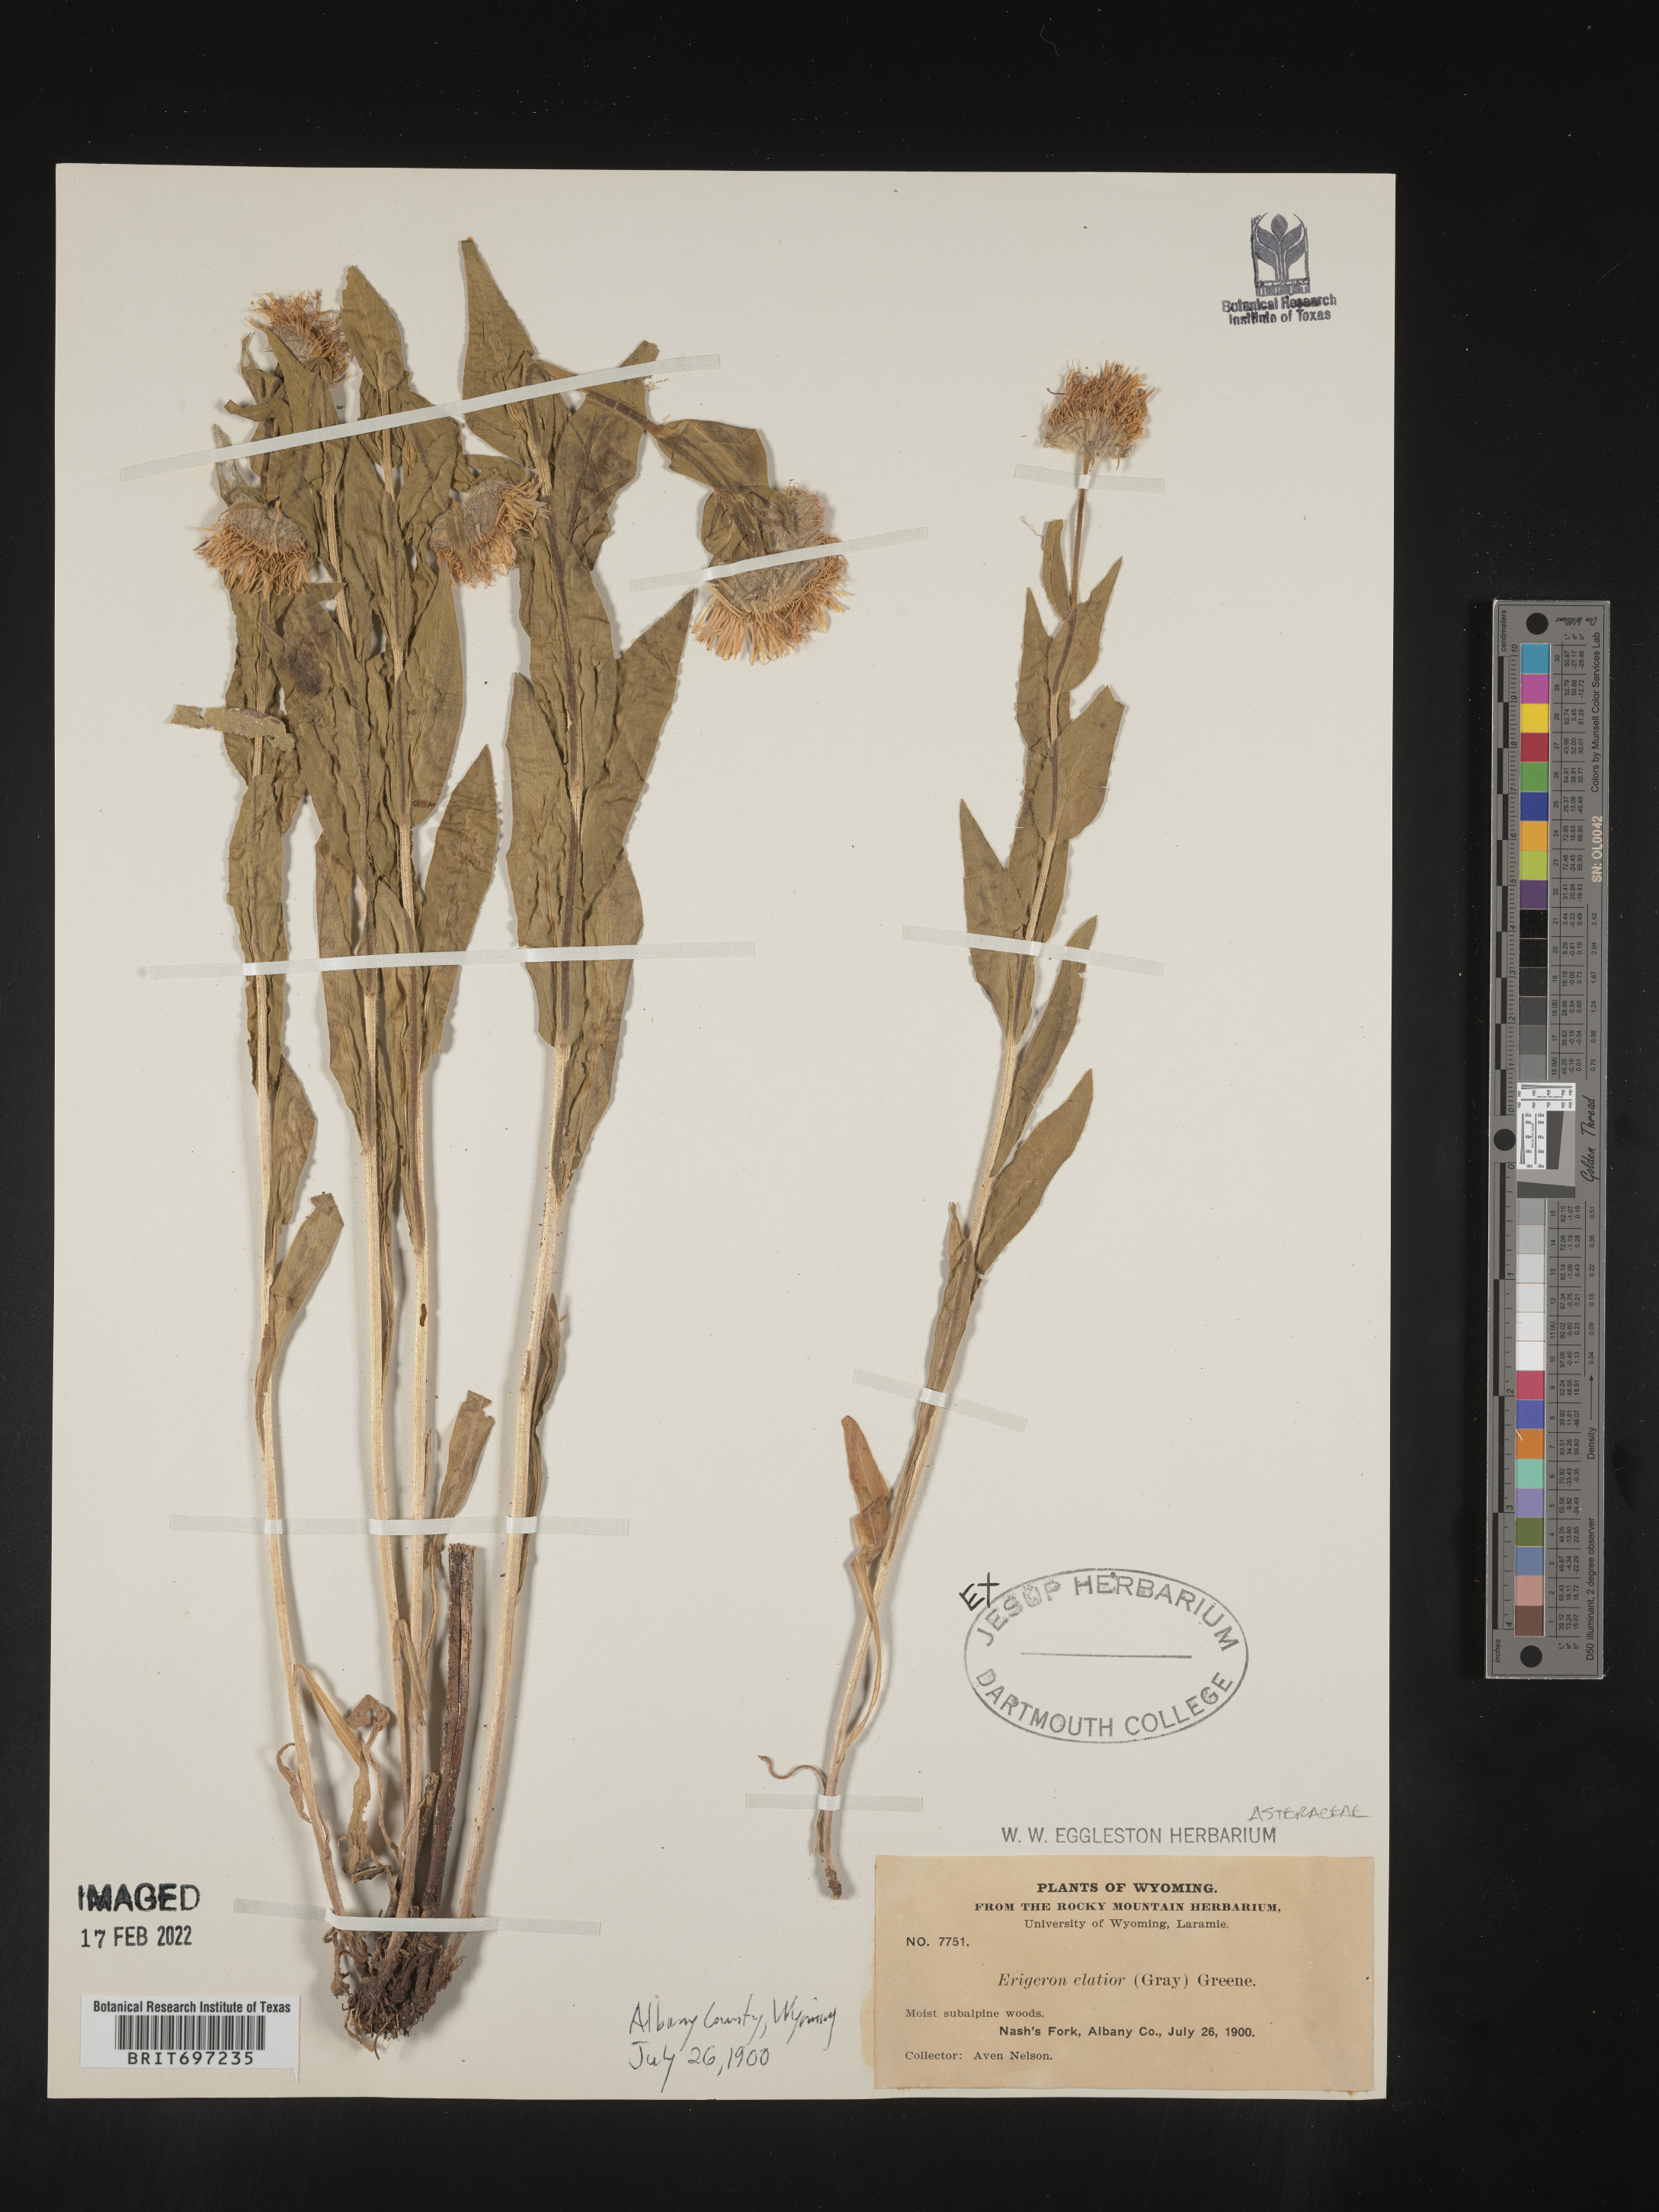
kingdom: Plantae
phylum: Tracheophyta
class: Magnoliopsida
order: Asterales
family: Asteraceae
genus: Erigeron
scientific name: Erigeron elatior
